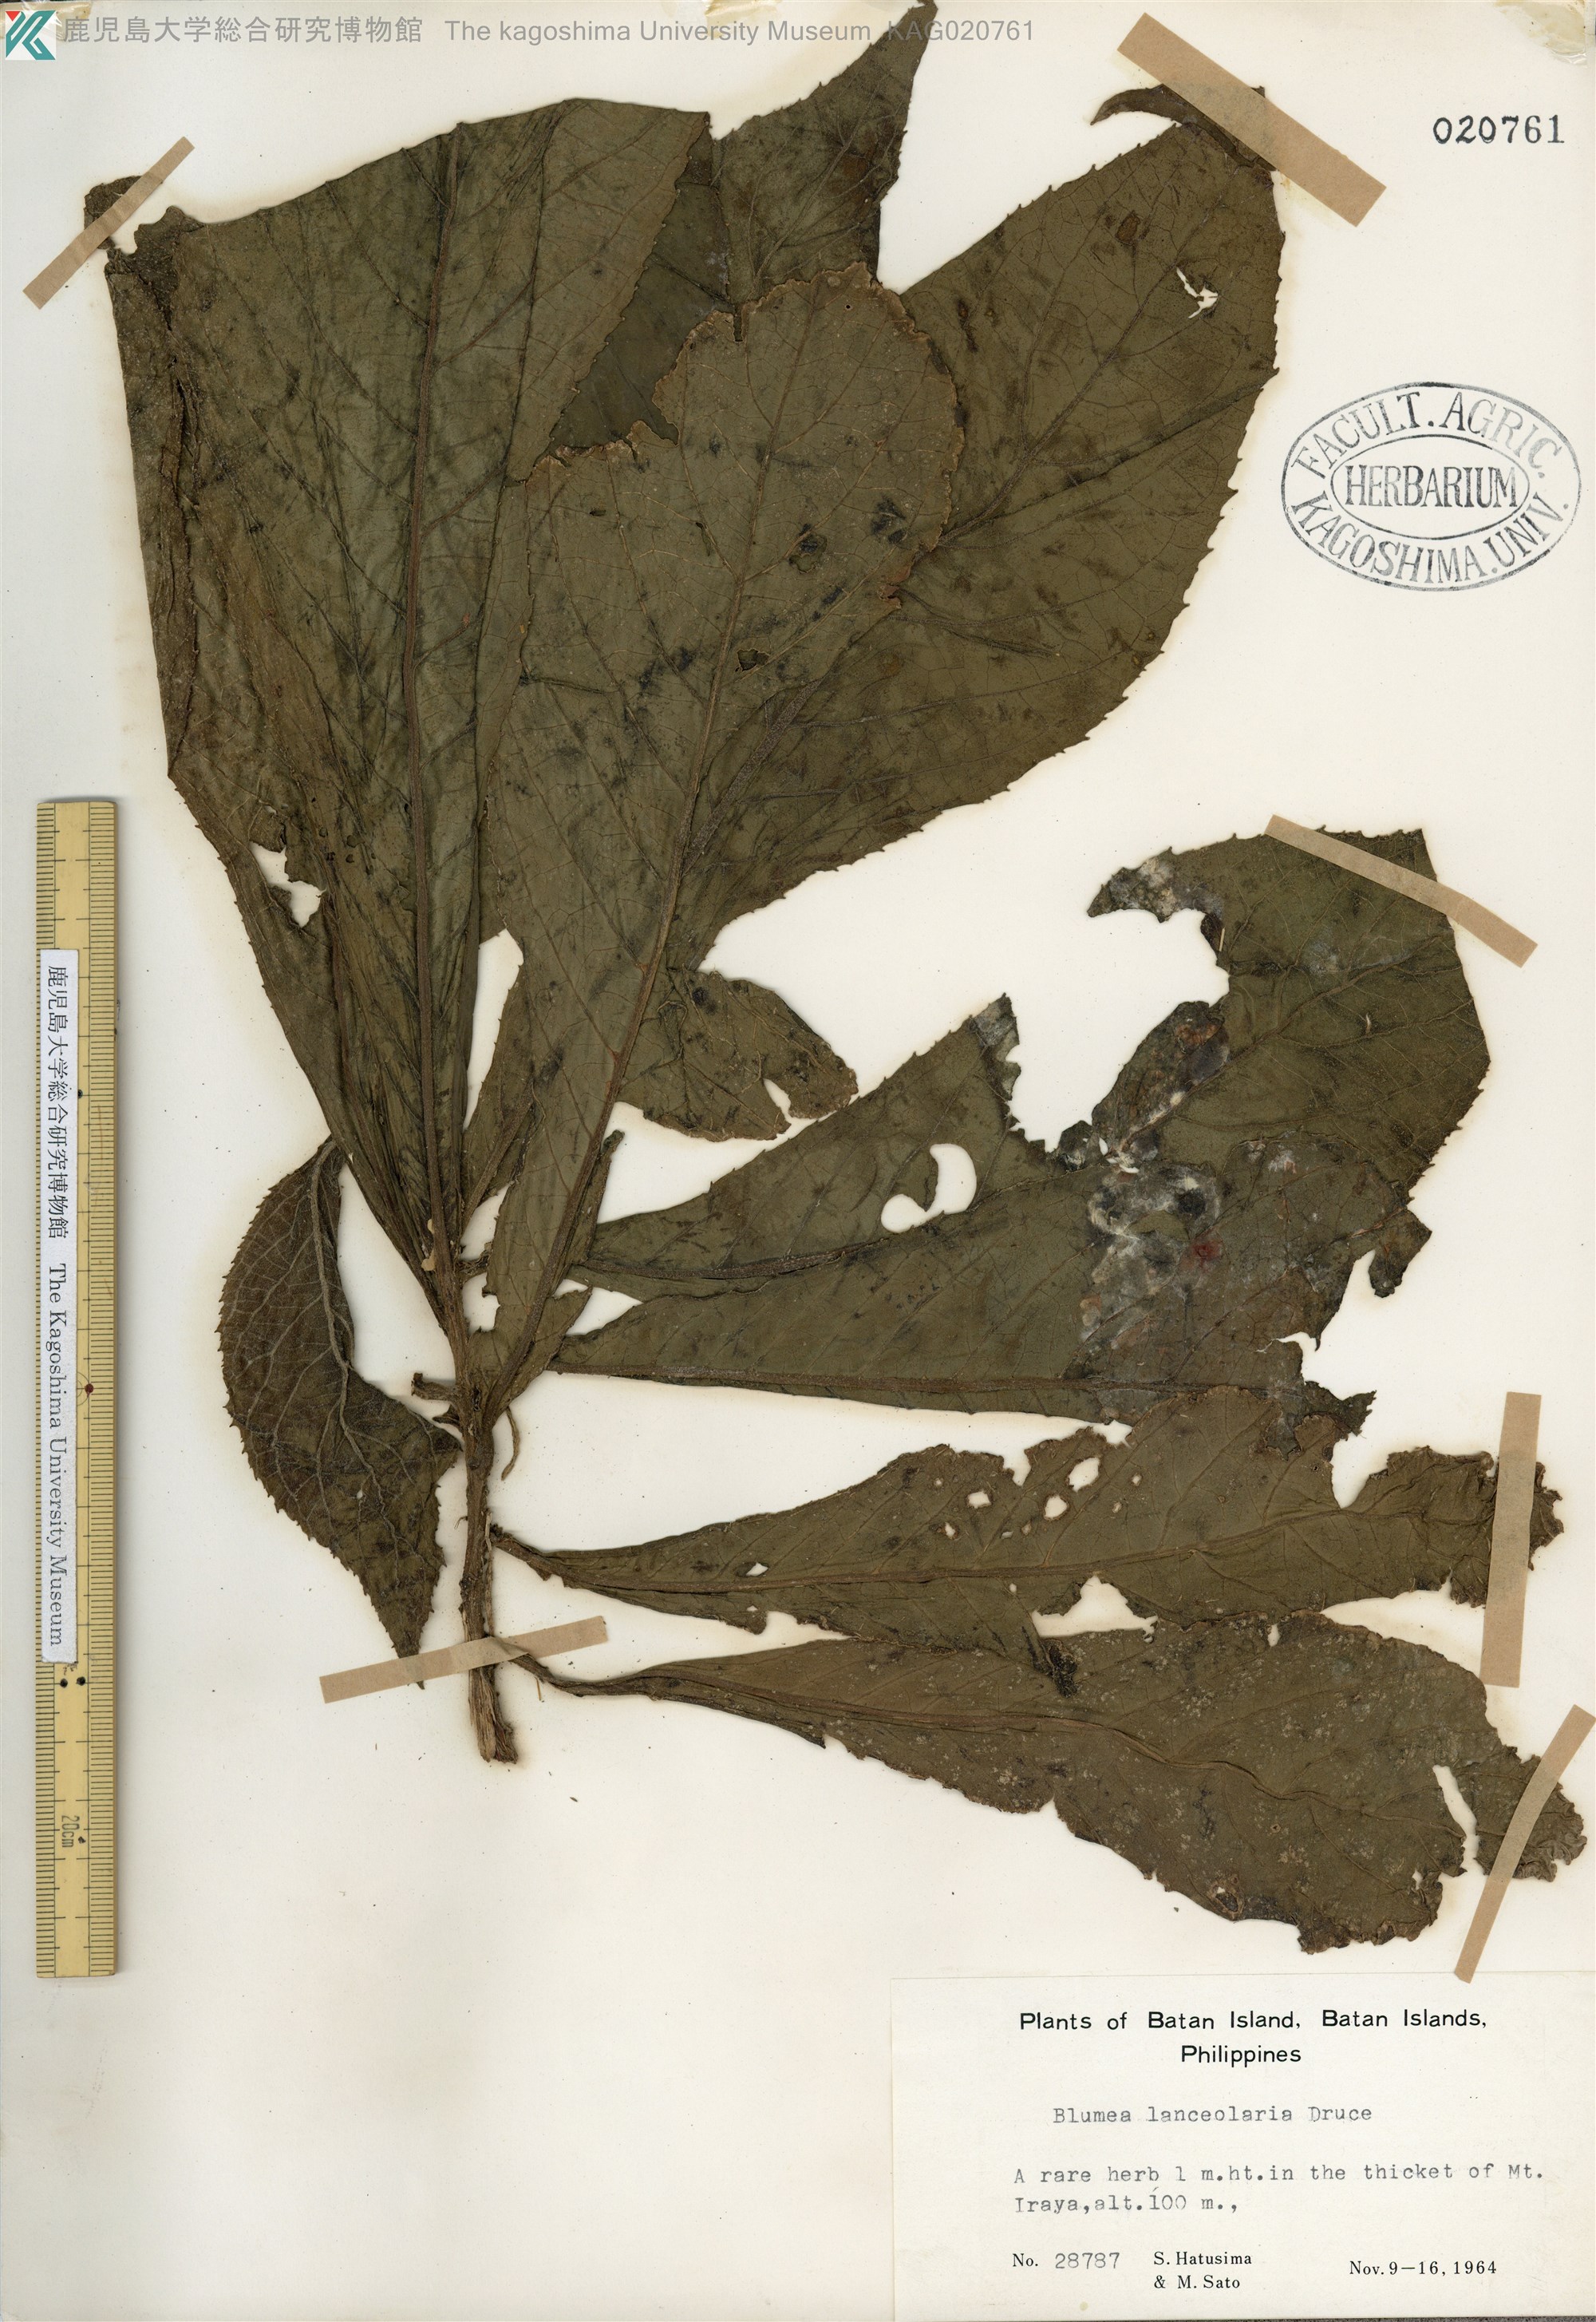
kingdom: Plantae
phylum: Tracheophyta
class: Magnoliopsida
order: Asterales
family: Asteraceae
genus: Blumea
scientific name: Blumea conspicua
